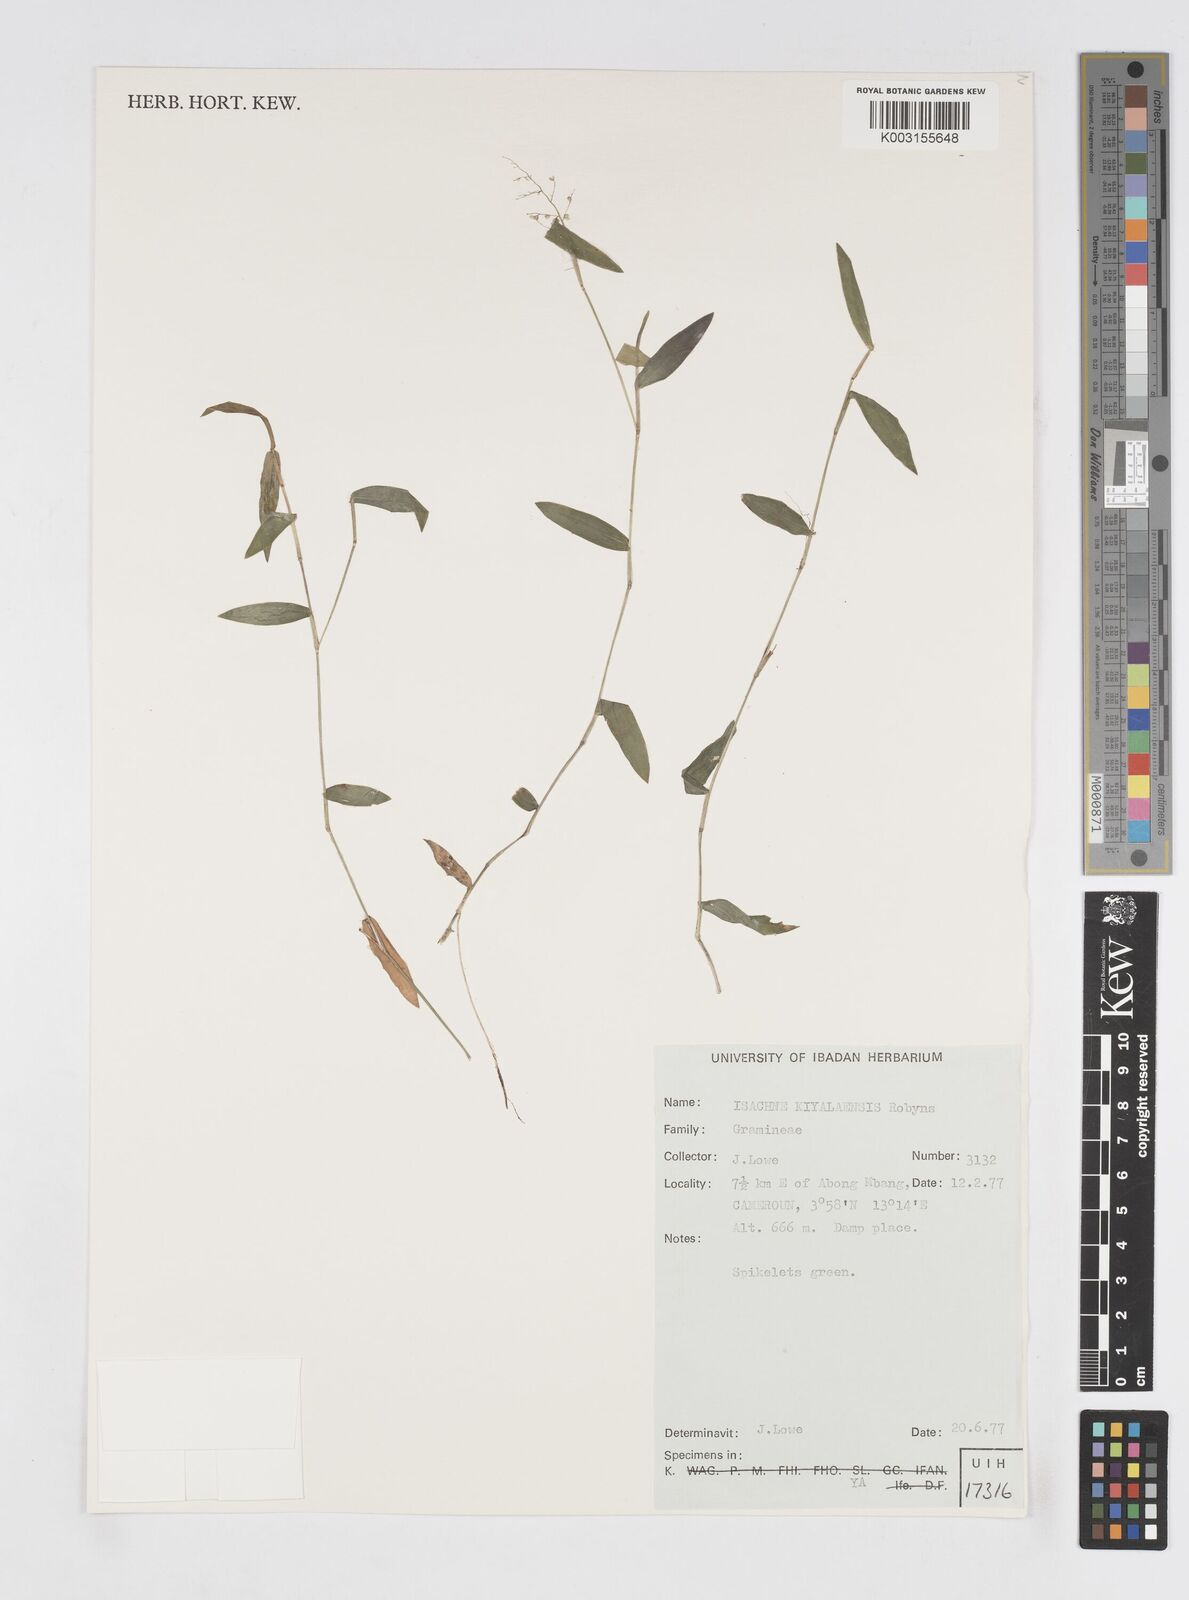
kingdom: Plantae
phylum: Tracheophyta
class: Liliopsida
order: Poales
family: Poaceae
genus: Isachne
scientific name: Isachne kiyalaensis
